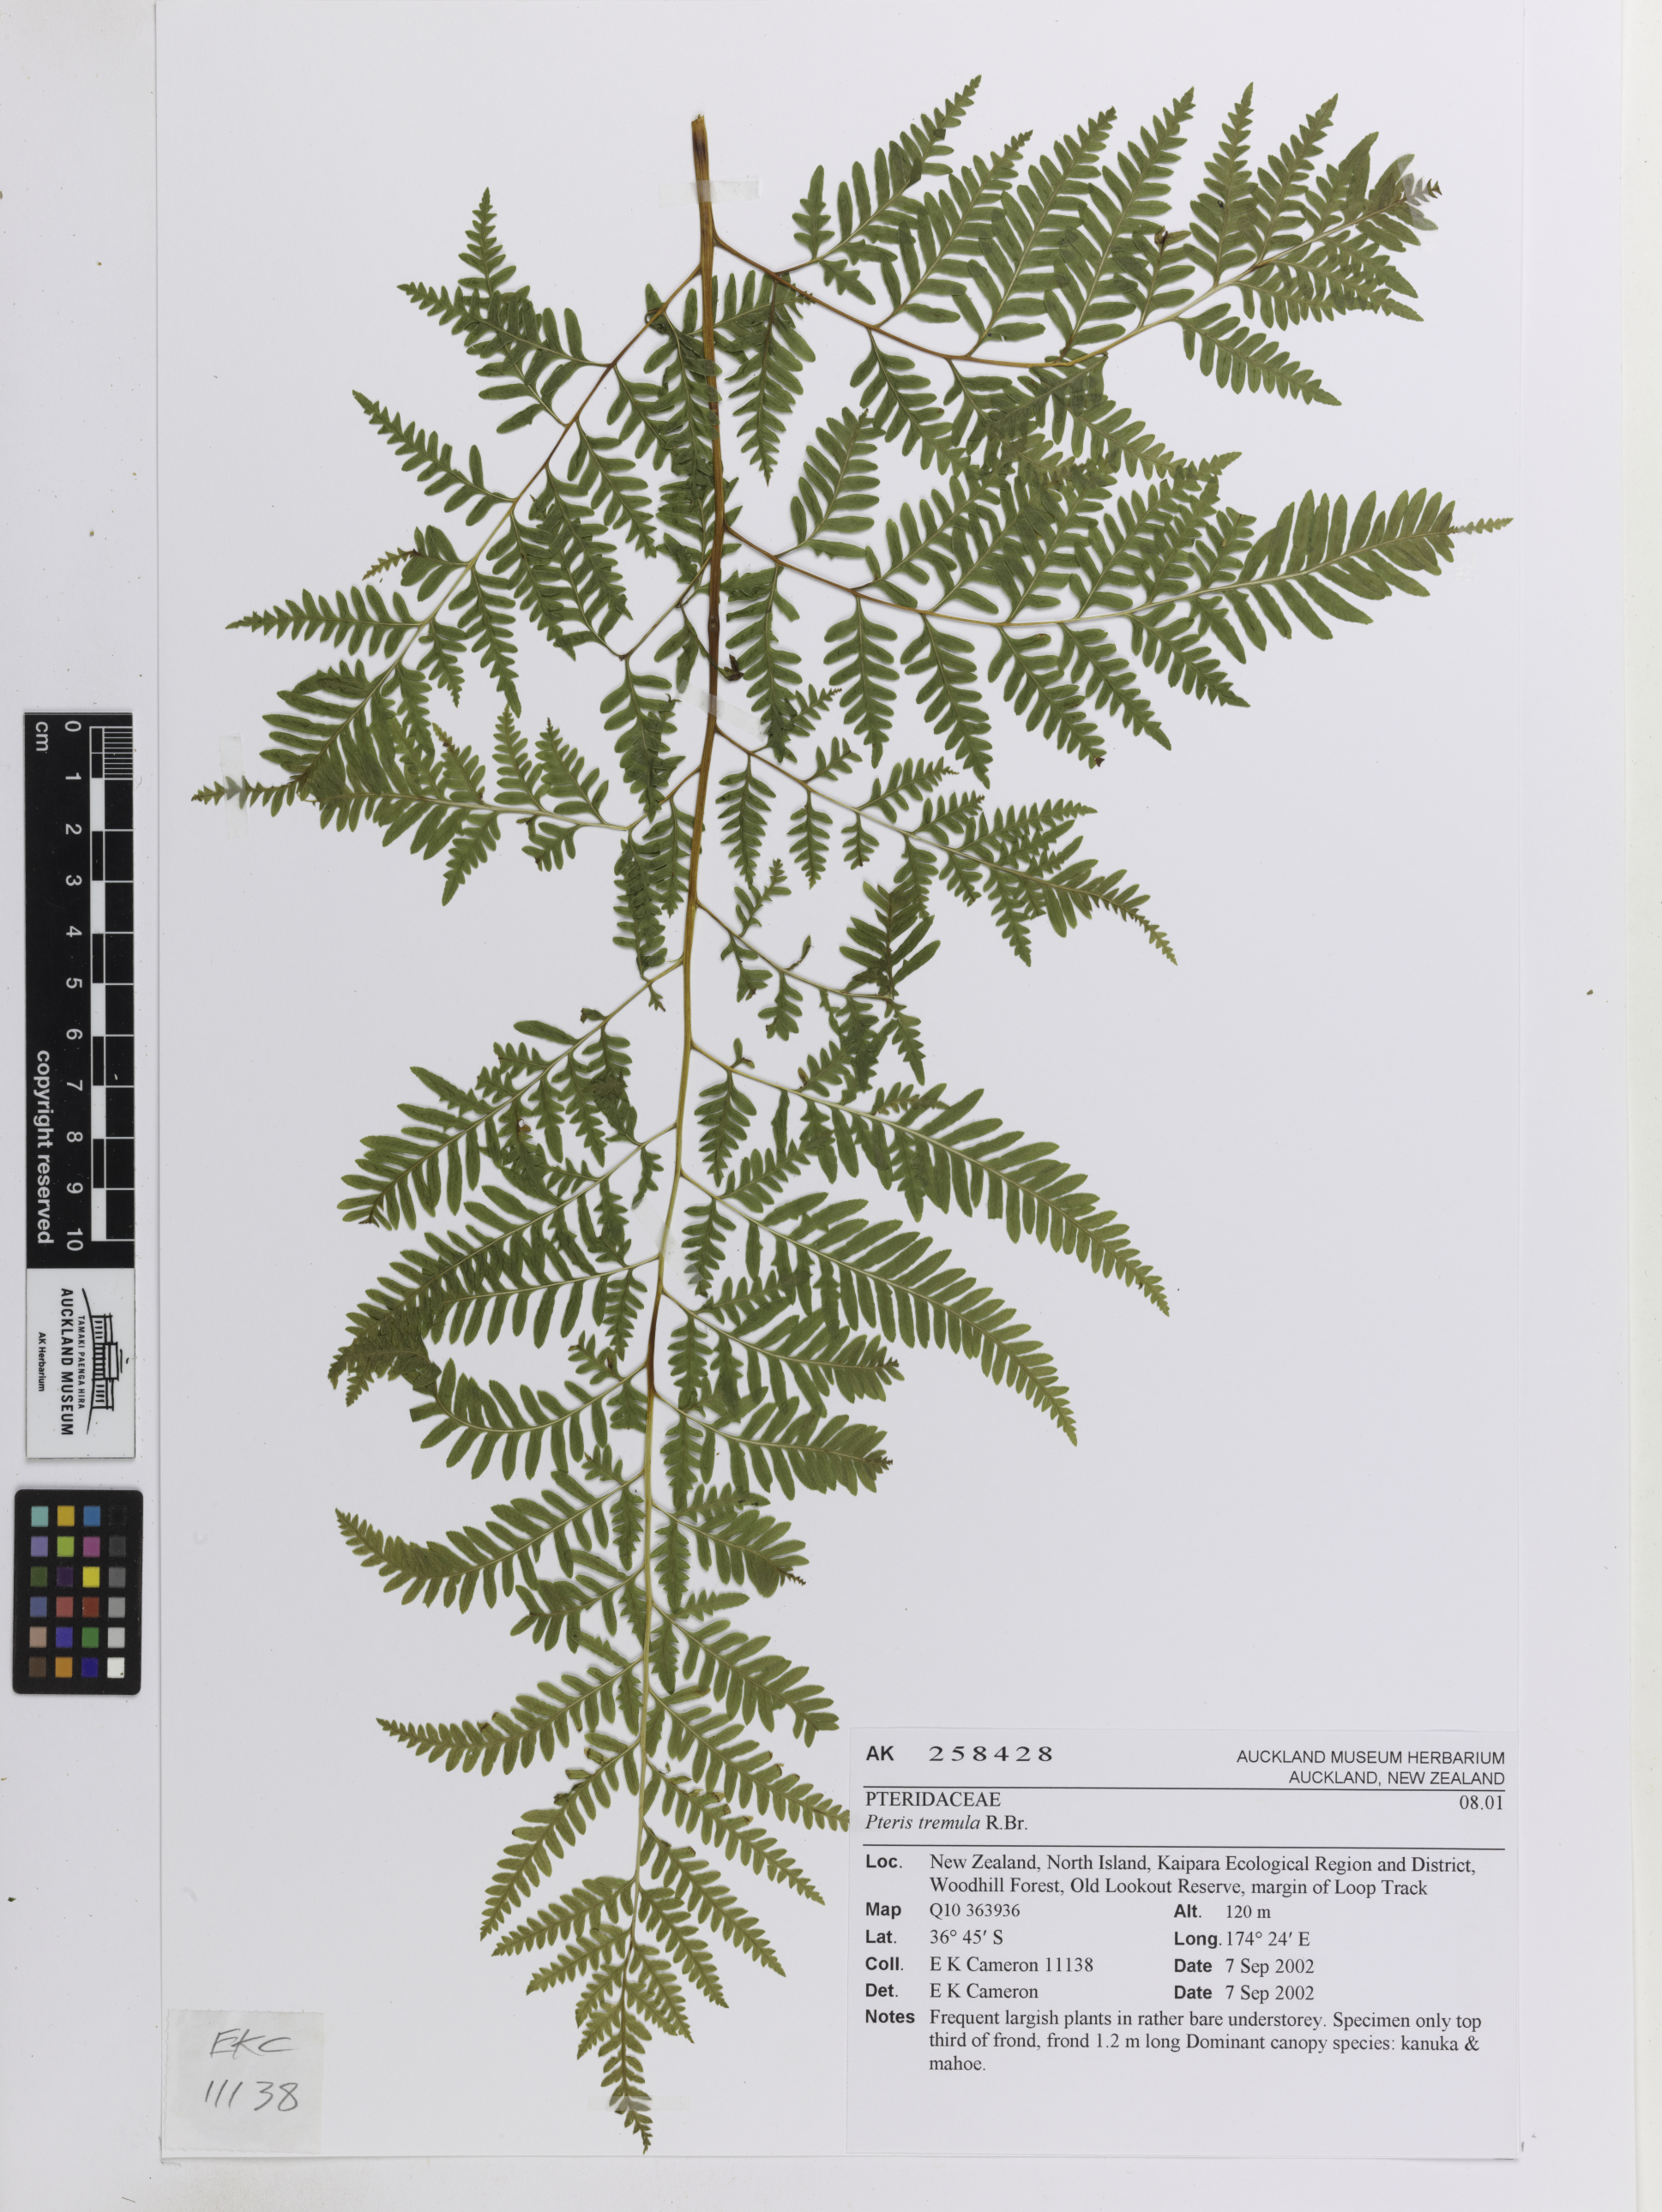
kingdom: Plantae
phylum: Tracheophyta
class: Polypodiopsida
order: Polypodiales
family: Pteridaceae
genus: Pteris
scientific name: Pteris tremula
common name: Australian brake
